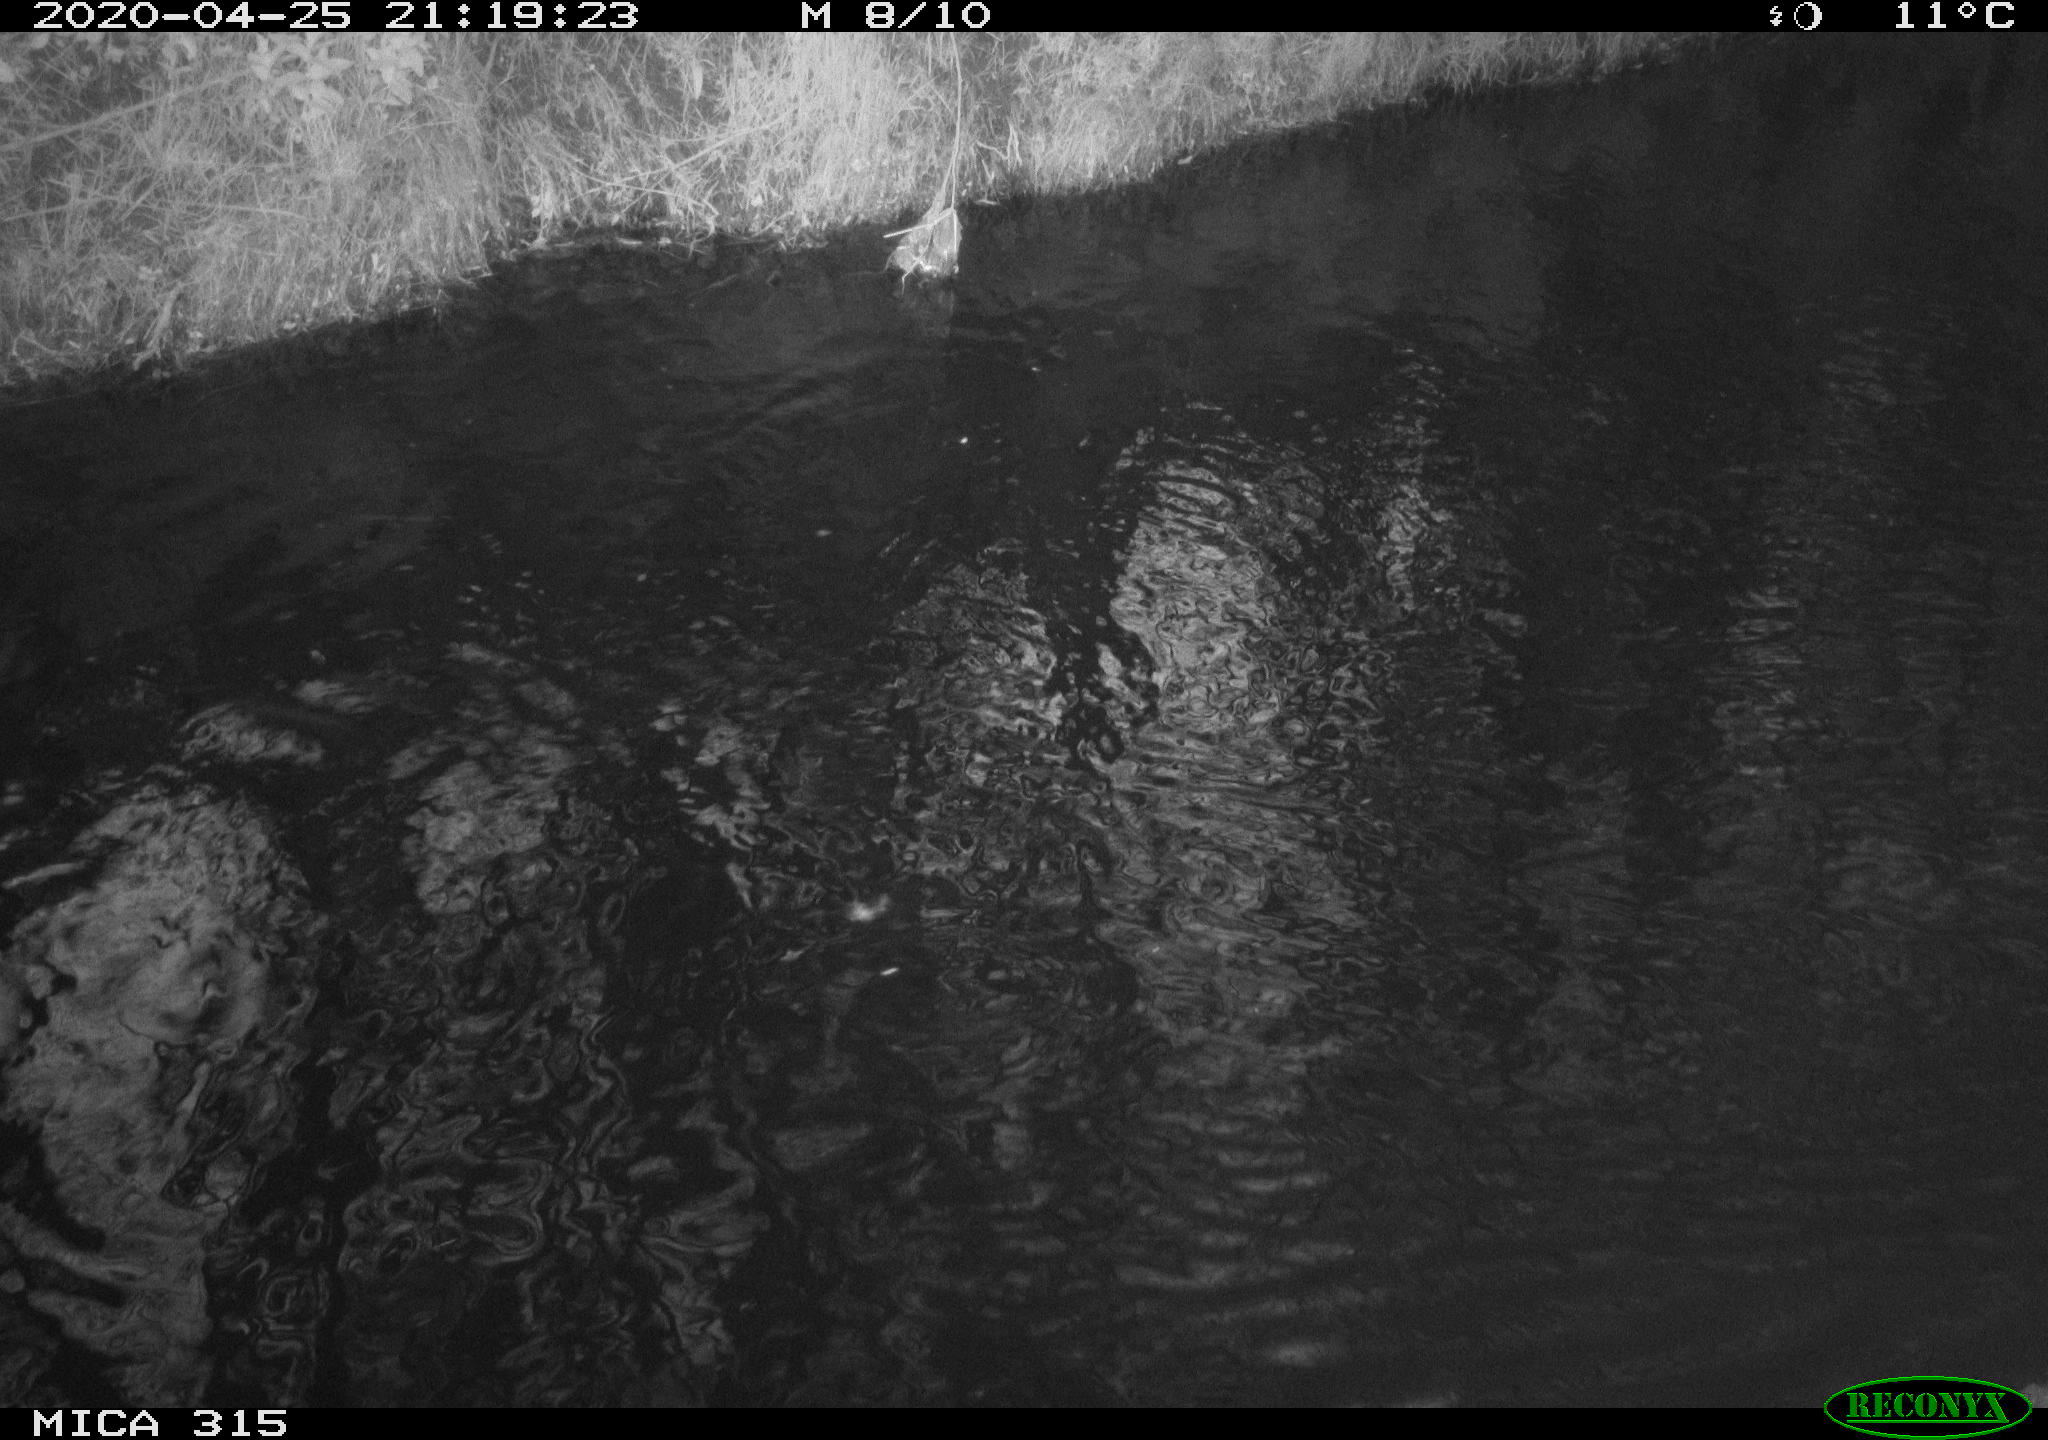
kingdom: Animalia
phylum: Chordata
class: Aves
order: Anseriformes
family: Anatidae
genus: Anas
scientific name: Anas platyrhynchos
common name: Mallard
